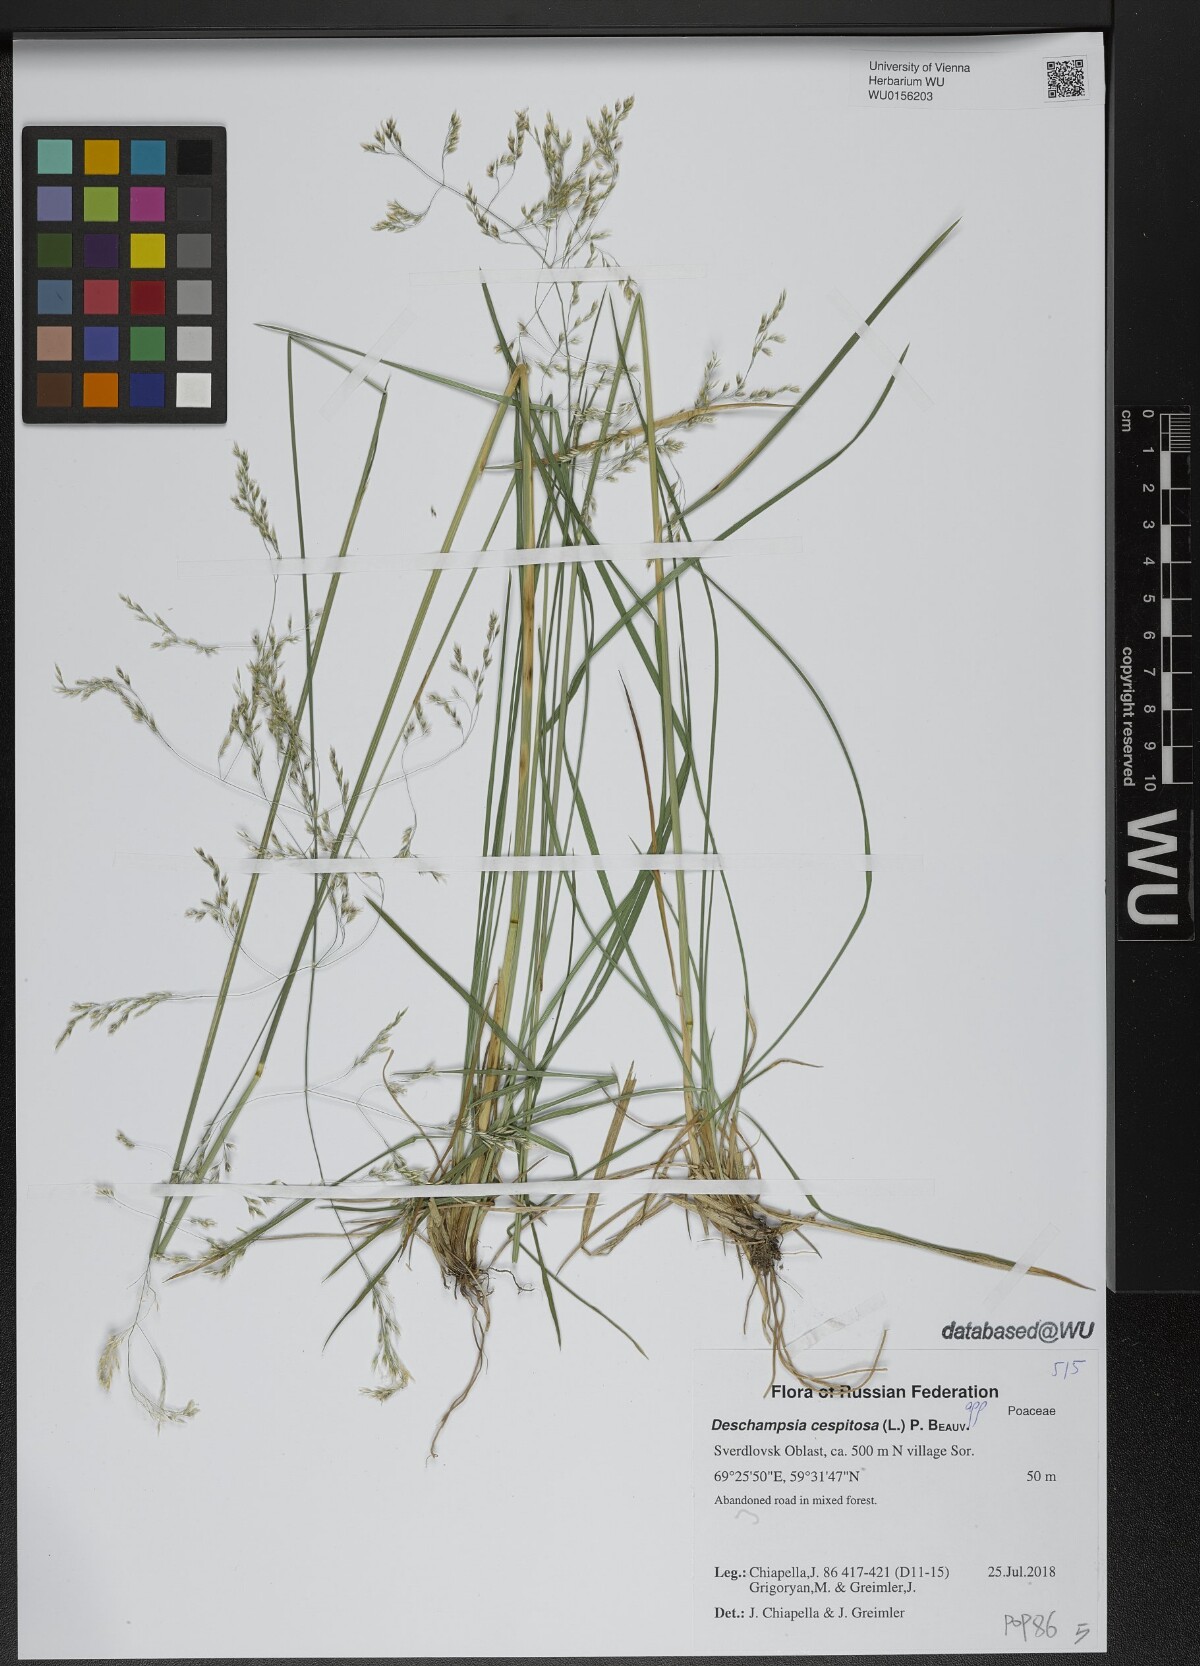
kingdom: Plantae
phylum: Tracheophyta
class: Liliopsida
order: Poales
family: Poaceae
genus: Deschampsia
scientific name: Deschampsia cespitosa
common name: Tufted hair-grass
